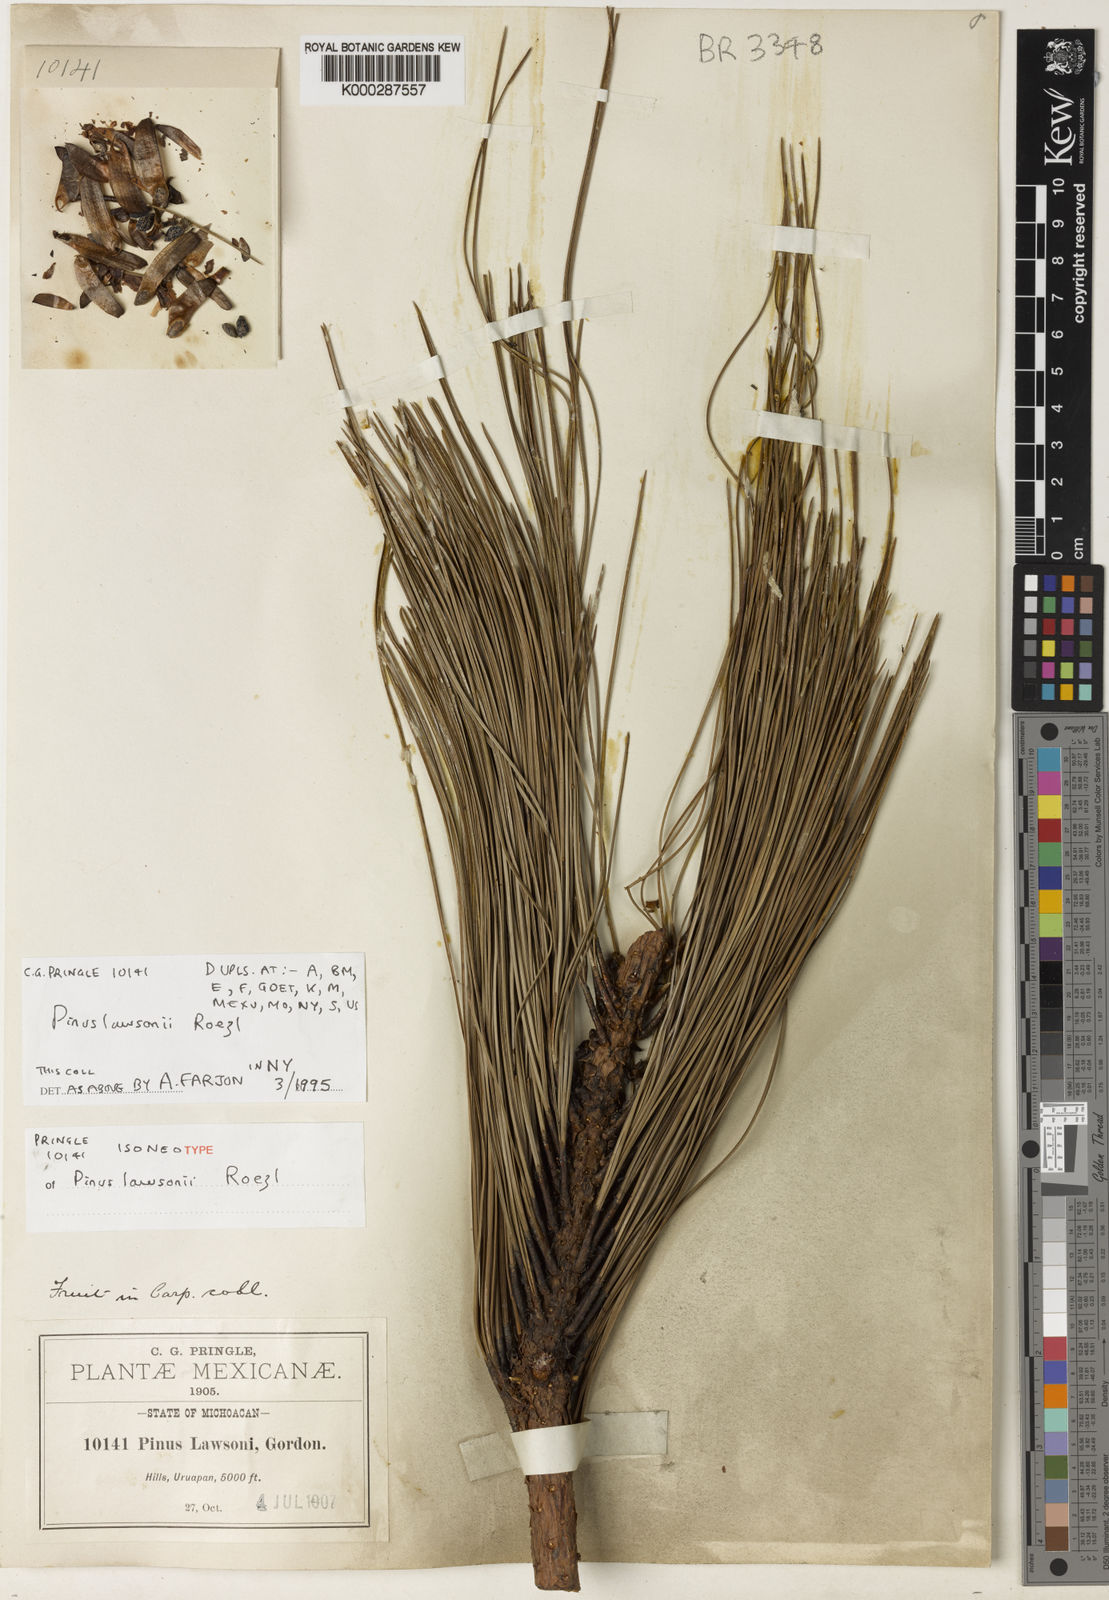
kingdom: Plantae
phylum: Tracheophyta
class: Pinopsida
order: Pinales
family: Pinaceae
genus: Pinus
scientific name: Pinus lawsonii
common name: Lawson's pine
